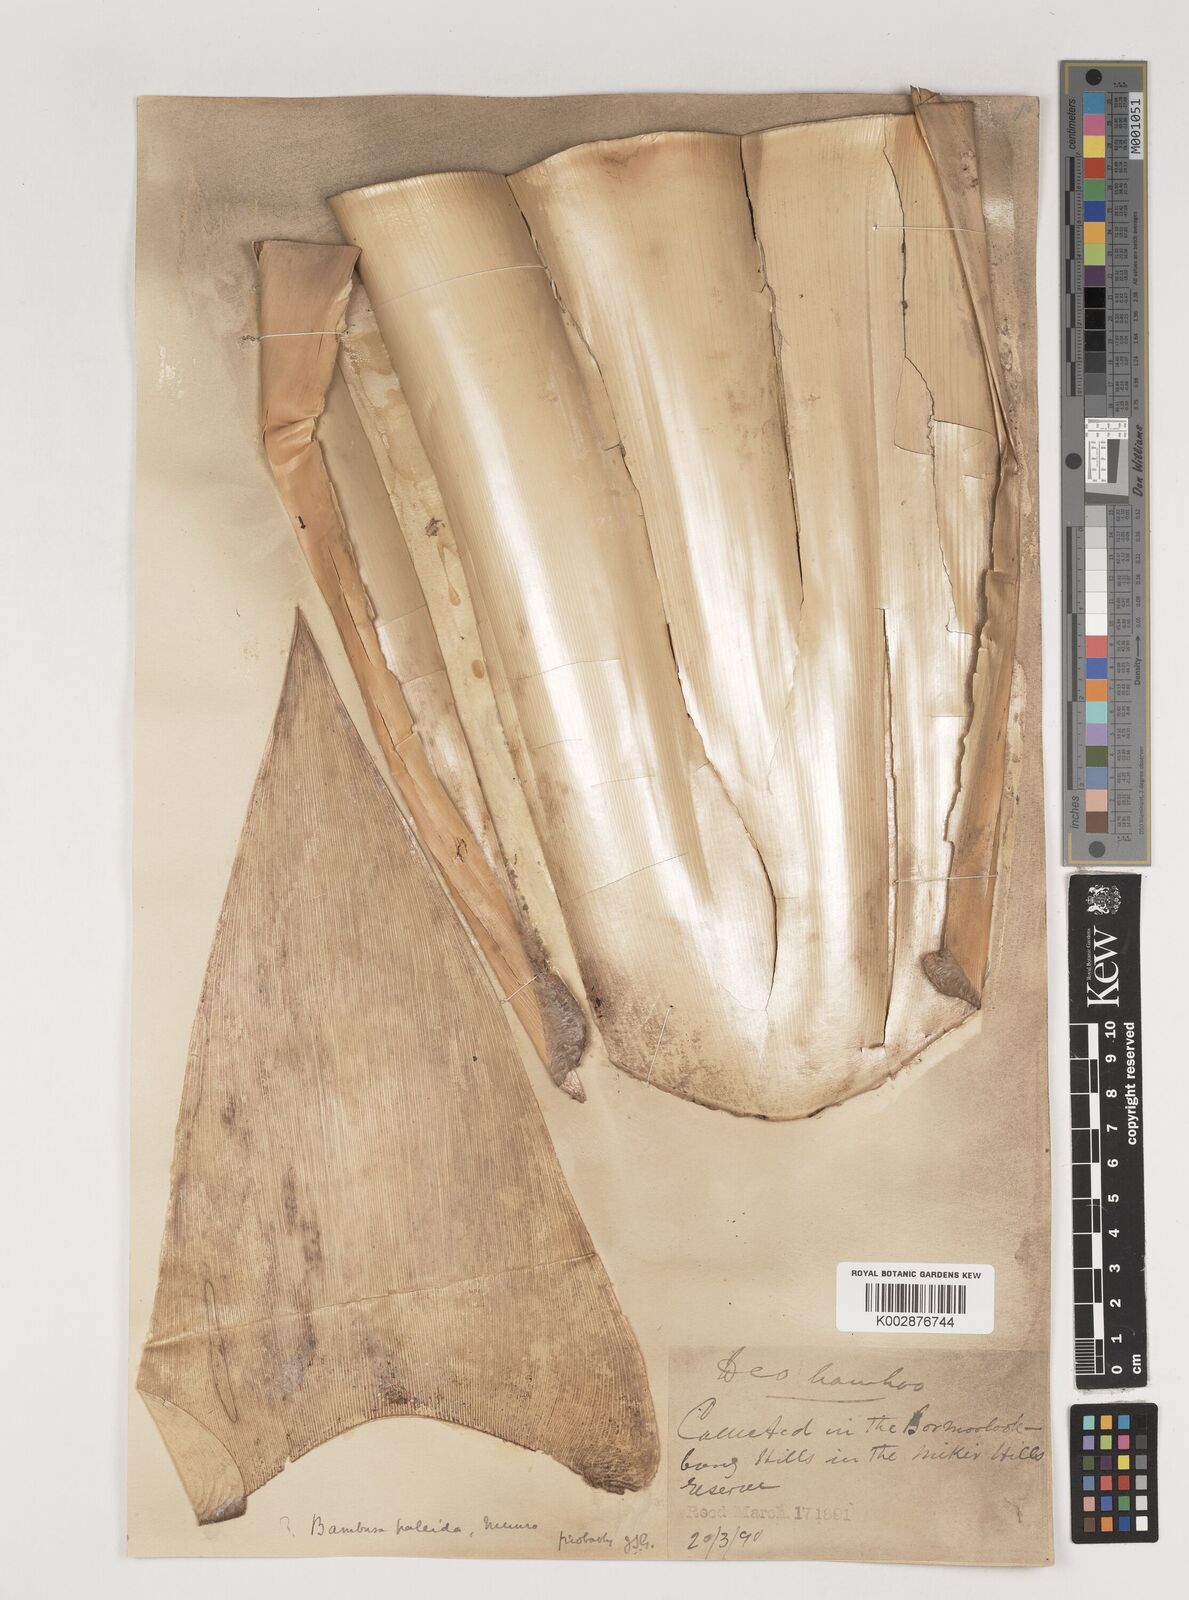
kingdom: Plantae
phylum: Tracheophyta
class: Liliopsida
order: Poales
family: Poaceae
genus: Bambusa
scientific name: Bambusa pallida
